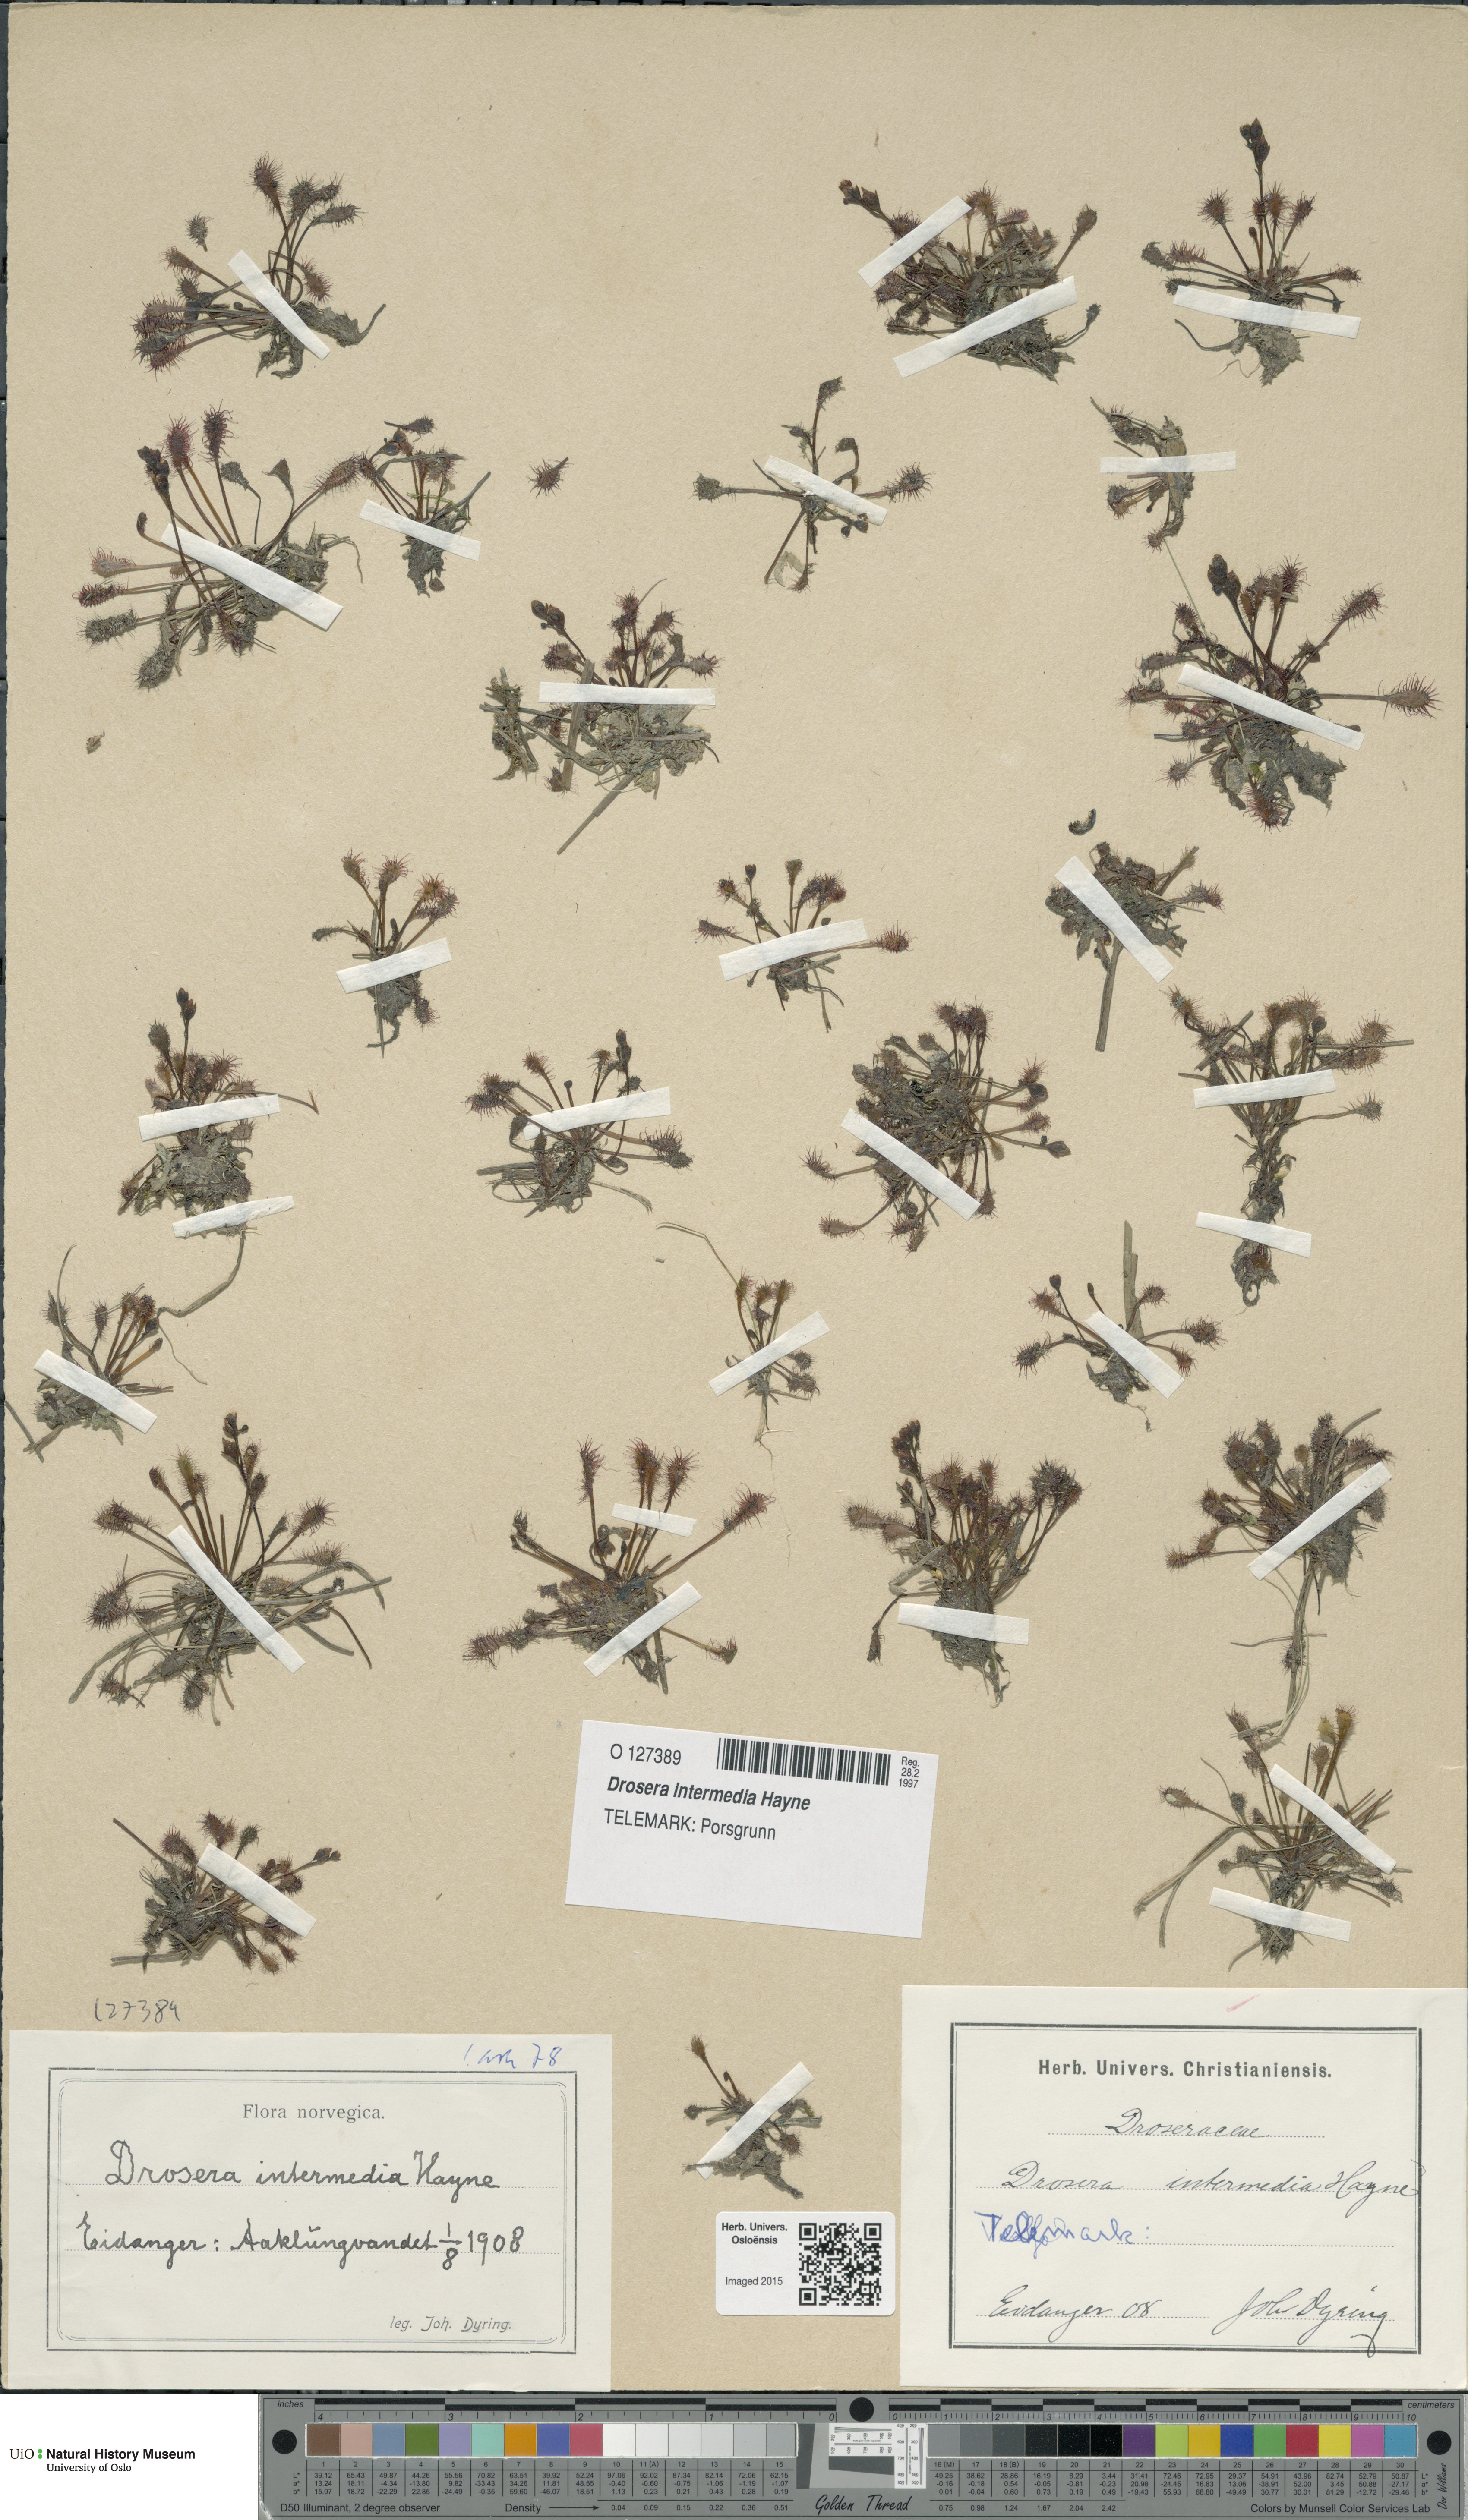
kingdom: Plantae
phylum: Tracheophyta
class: Magnoliopsida
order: Caryophyllales
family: Droseraceae
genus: Drosera
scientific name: Drosera intermedia
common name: Oblong-leaved sundew
